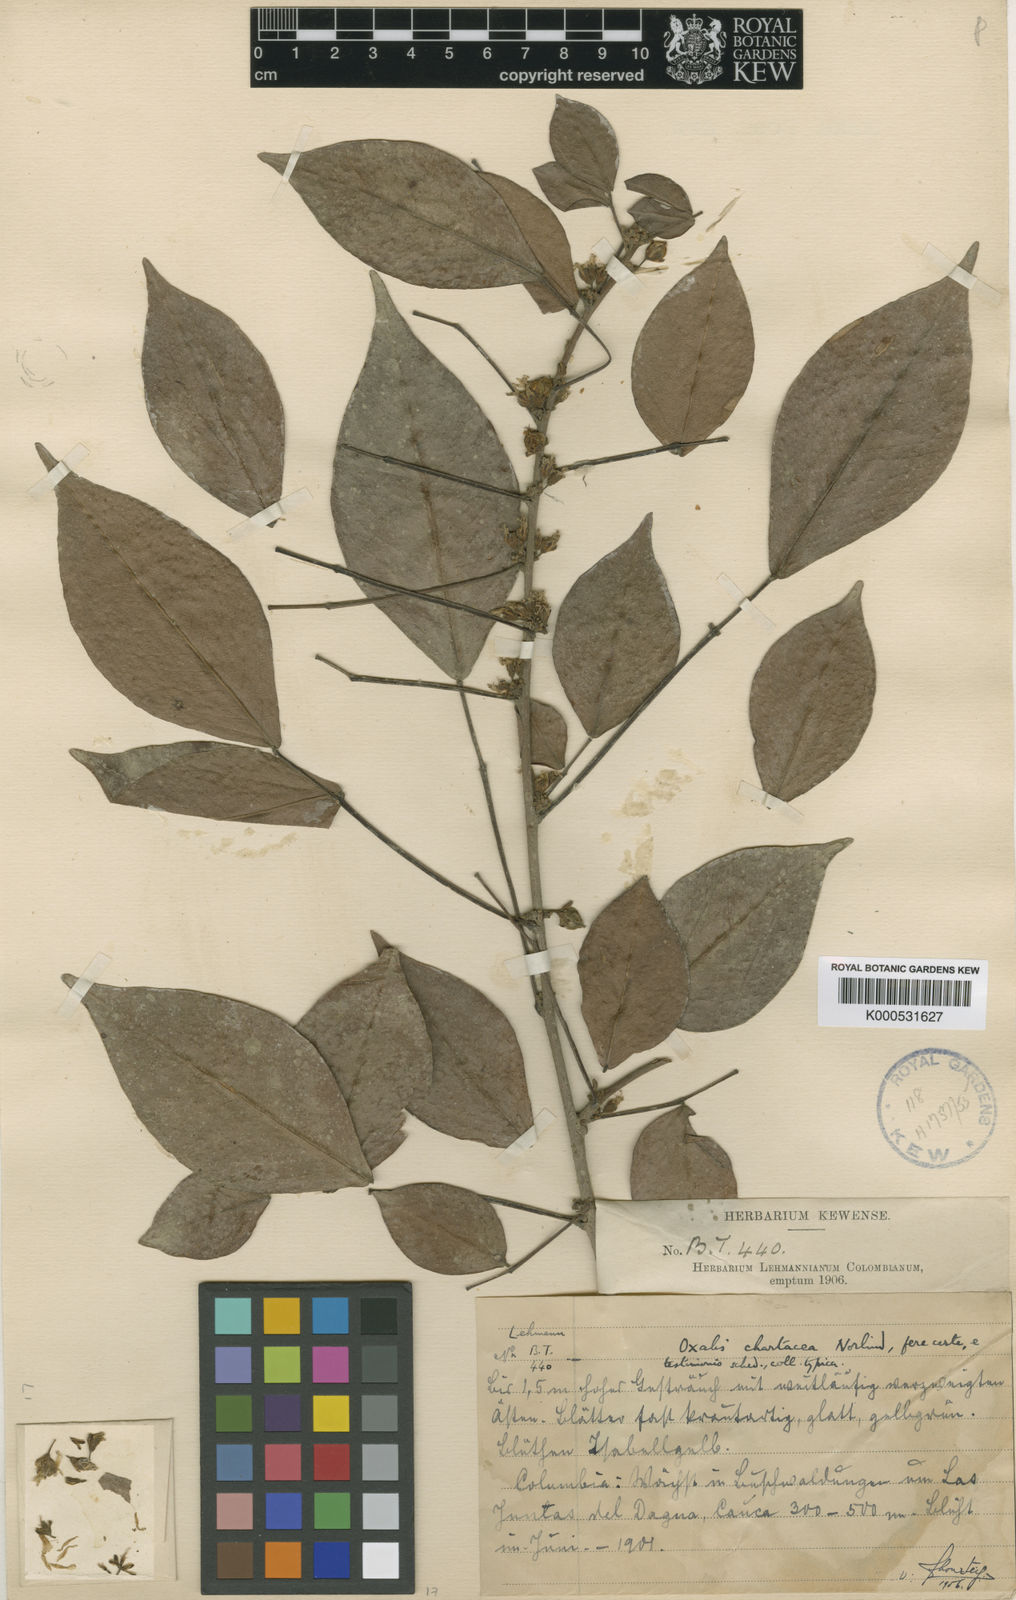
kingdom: Plantae
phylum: Tracheophyta
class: Magnoliopsida
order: Oxalidales
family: Oxalidaceae
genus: Oxalis
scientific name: Oxalis chartacea
